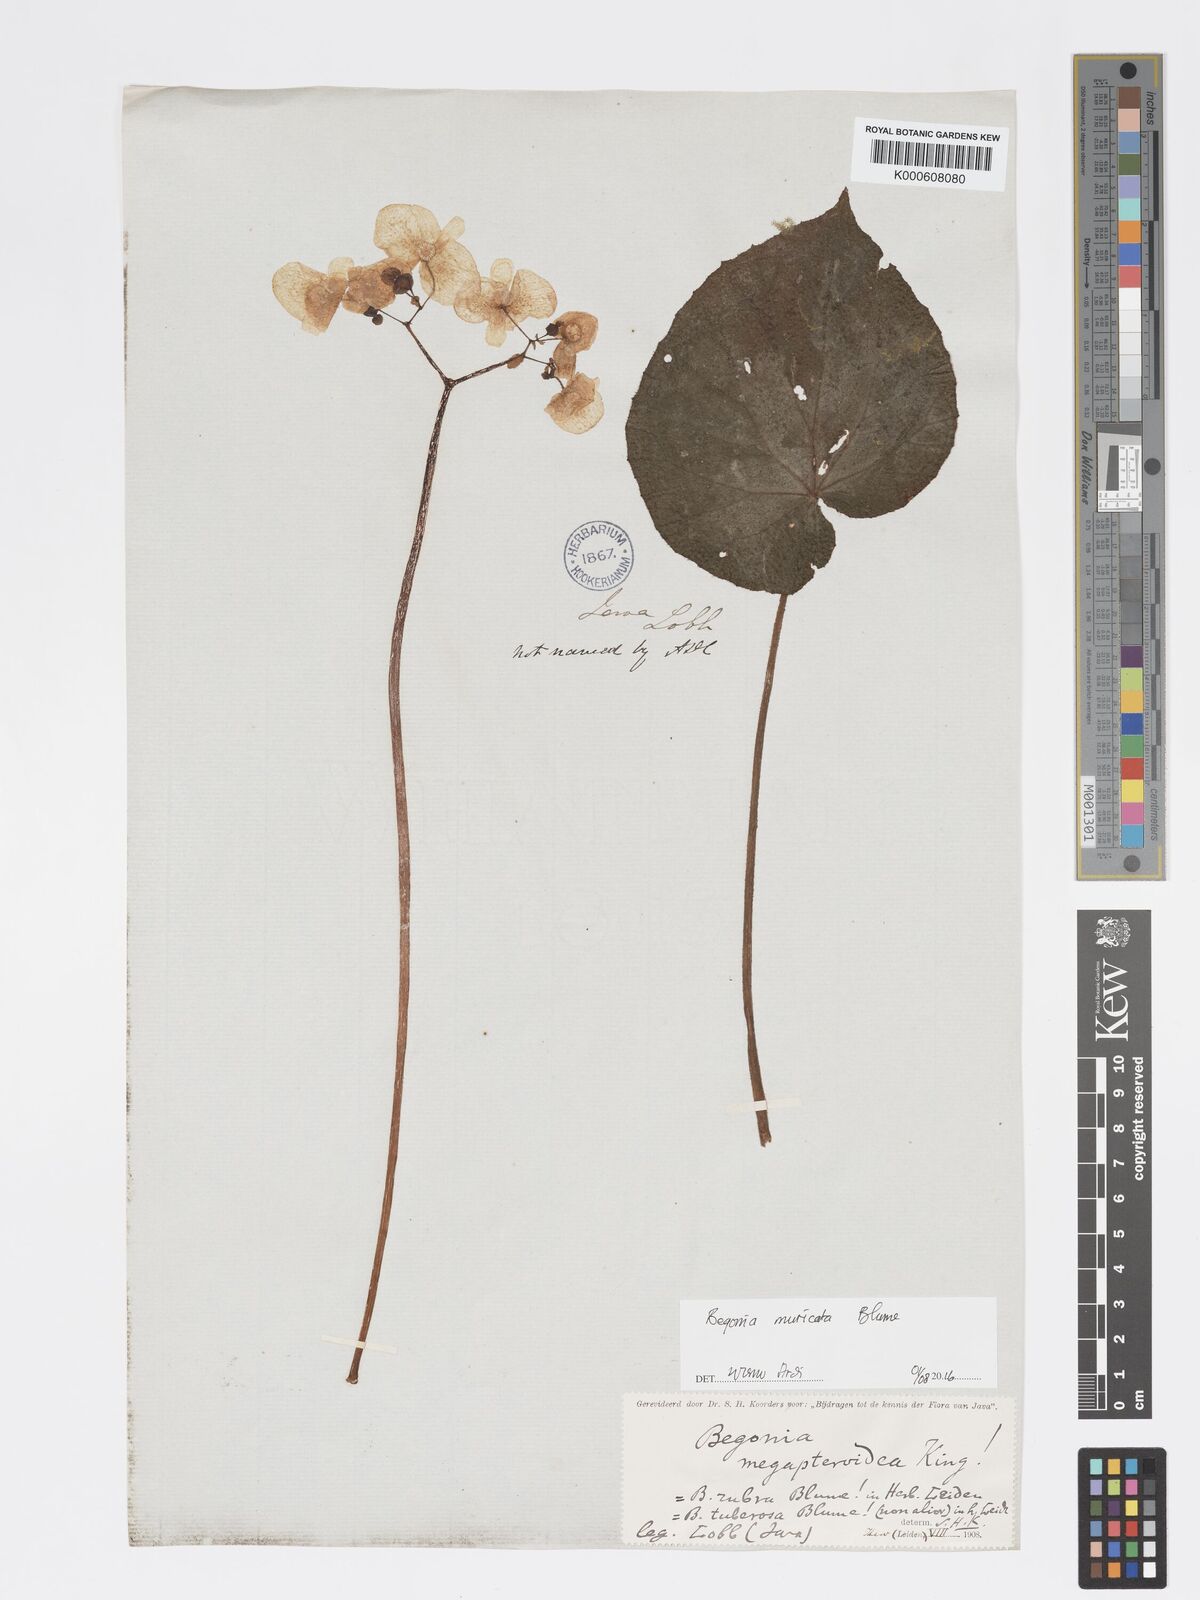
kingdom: Plantae
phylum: Tracheophyta
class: Magnoliopsida
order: Cucurbitales
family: Begoniaceae
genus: Begonia
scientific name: Begonia muricata
